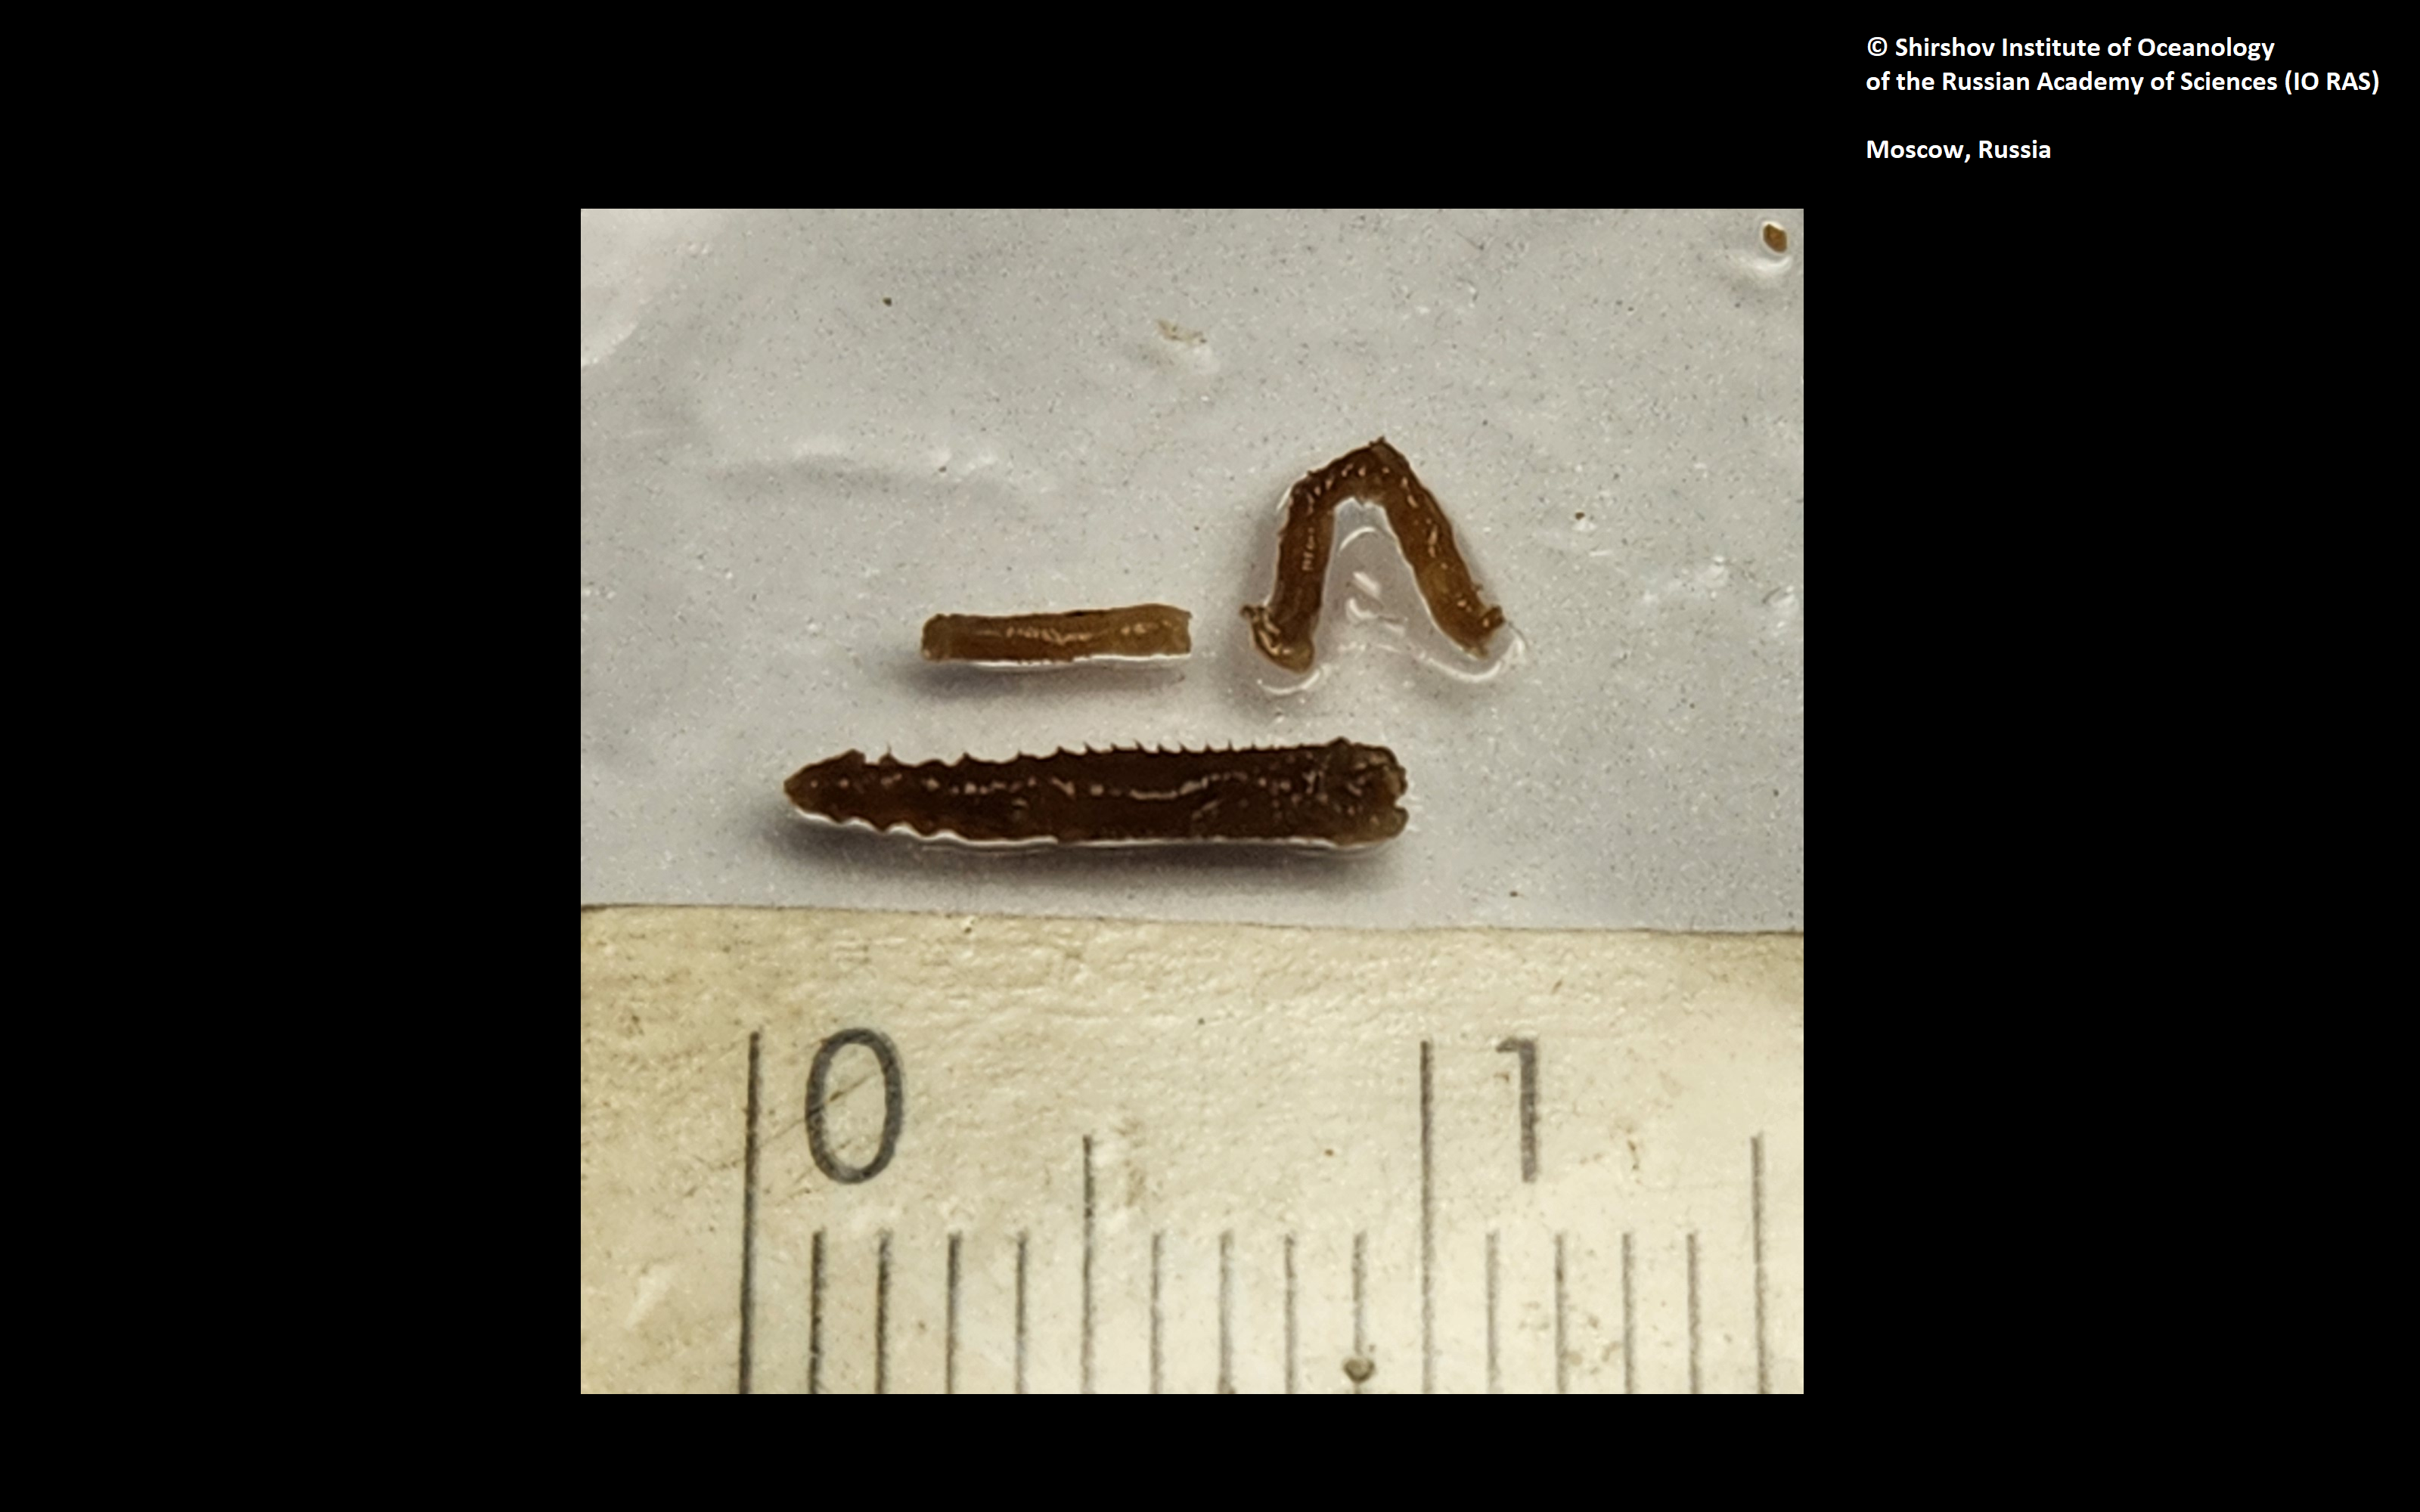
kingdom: Animalia
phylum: Annelida
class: Polychaeta
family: Melinnidae
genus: Melinna
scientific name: Melinna collare
